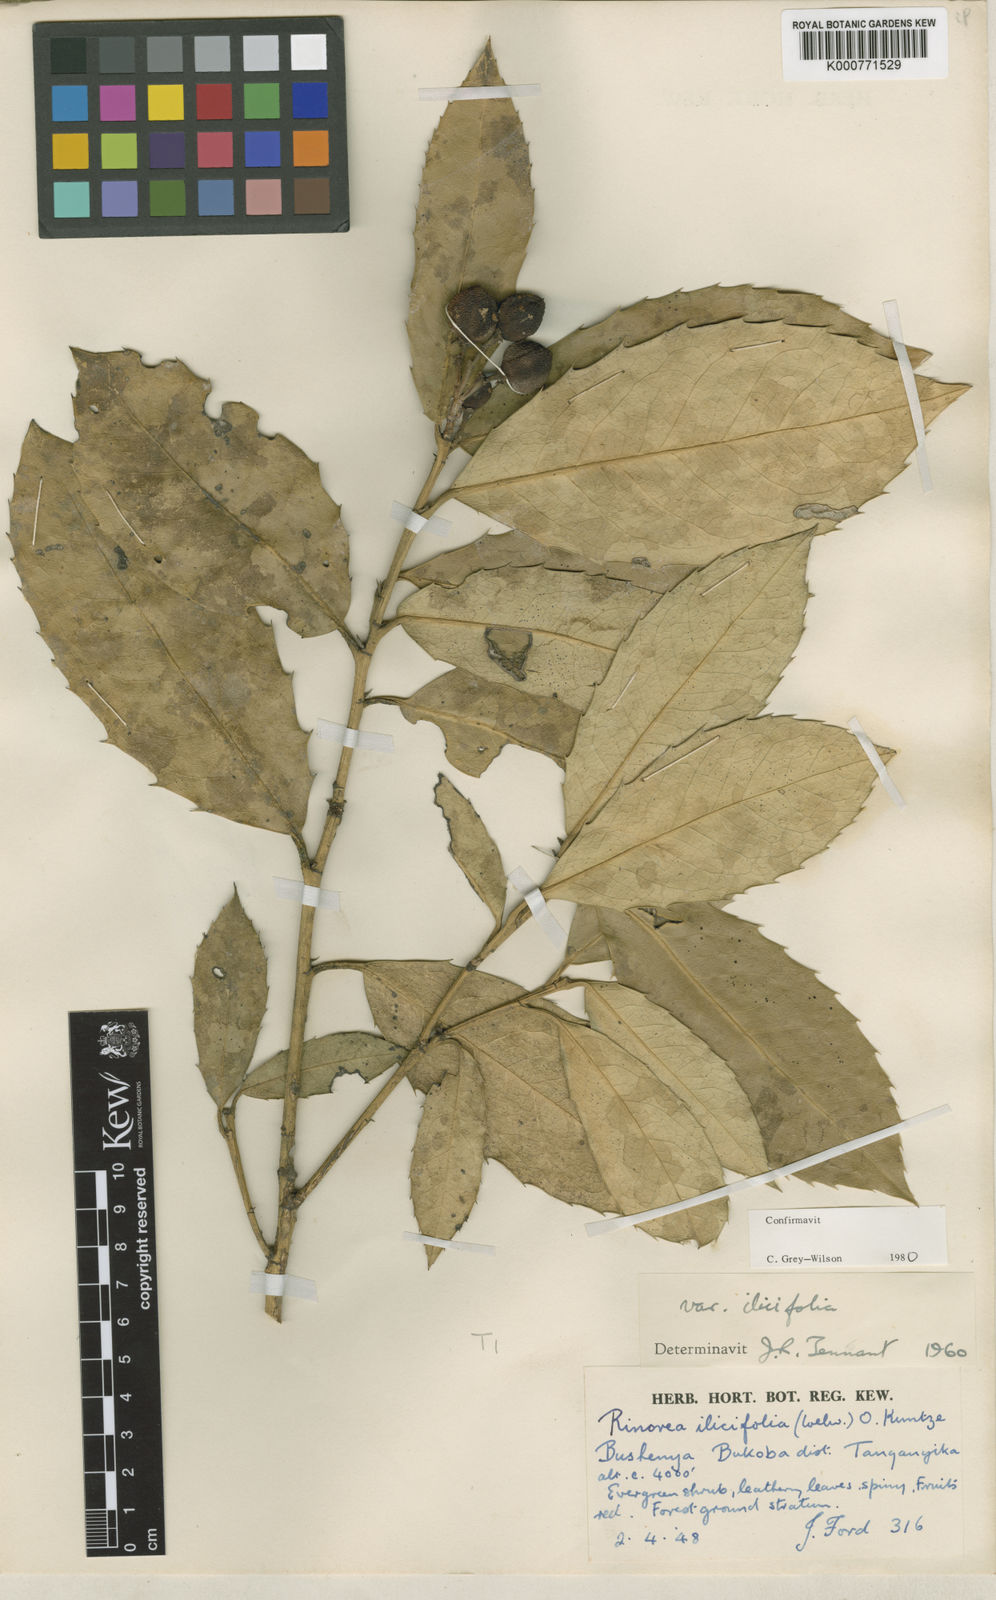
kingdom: Plantae
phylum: Tracheophyta
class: Magnoliopsida
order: Malpighiales
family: Violaceae
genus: Rinorea
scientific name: Rinorea ilicifolia
